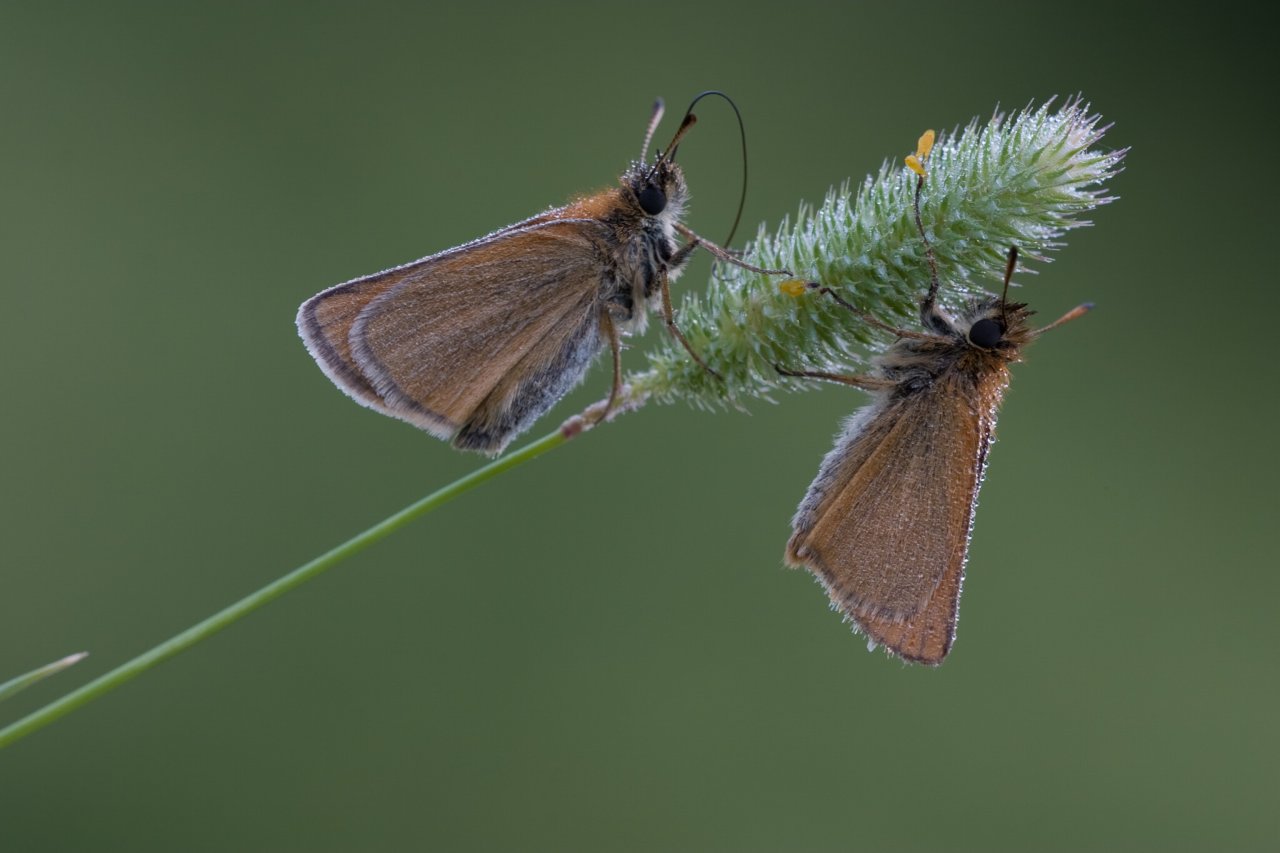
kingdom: Animalia
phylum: Arthropoda
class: Insecta
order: Lepidoptera
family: Hesperiidae
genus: Thymelicus
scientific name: Thymelicus lineola
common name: European Skipper
